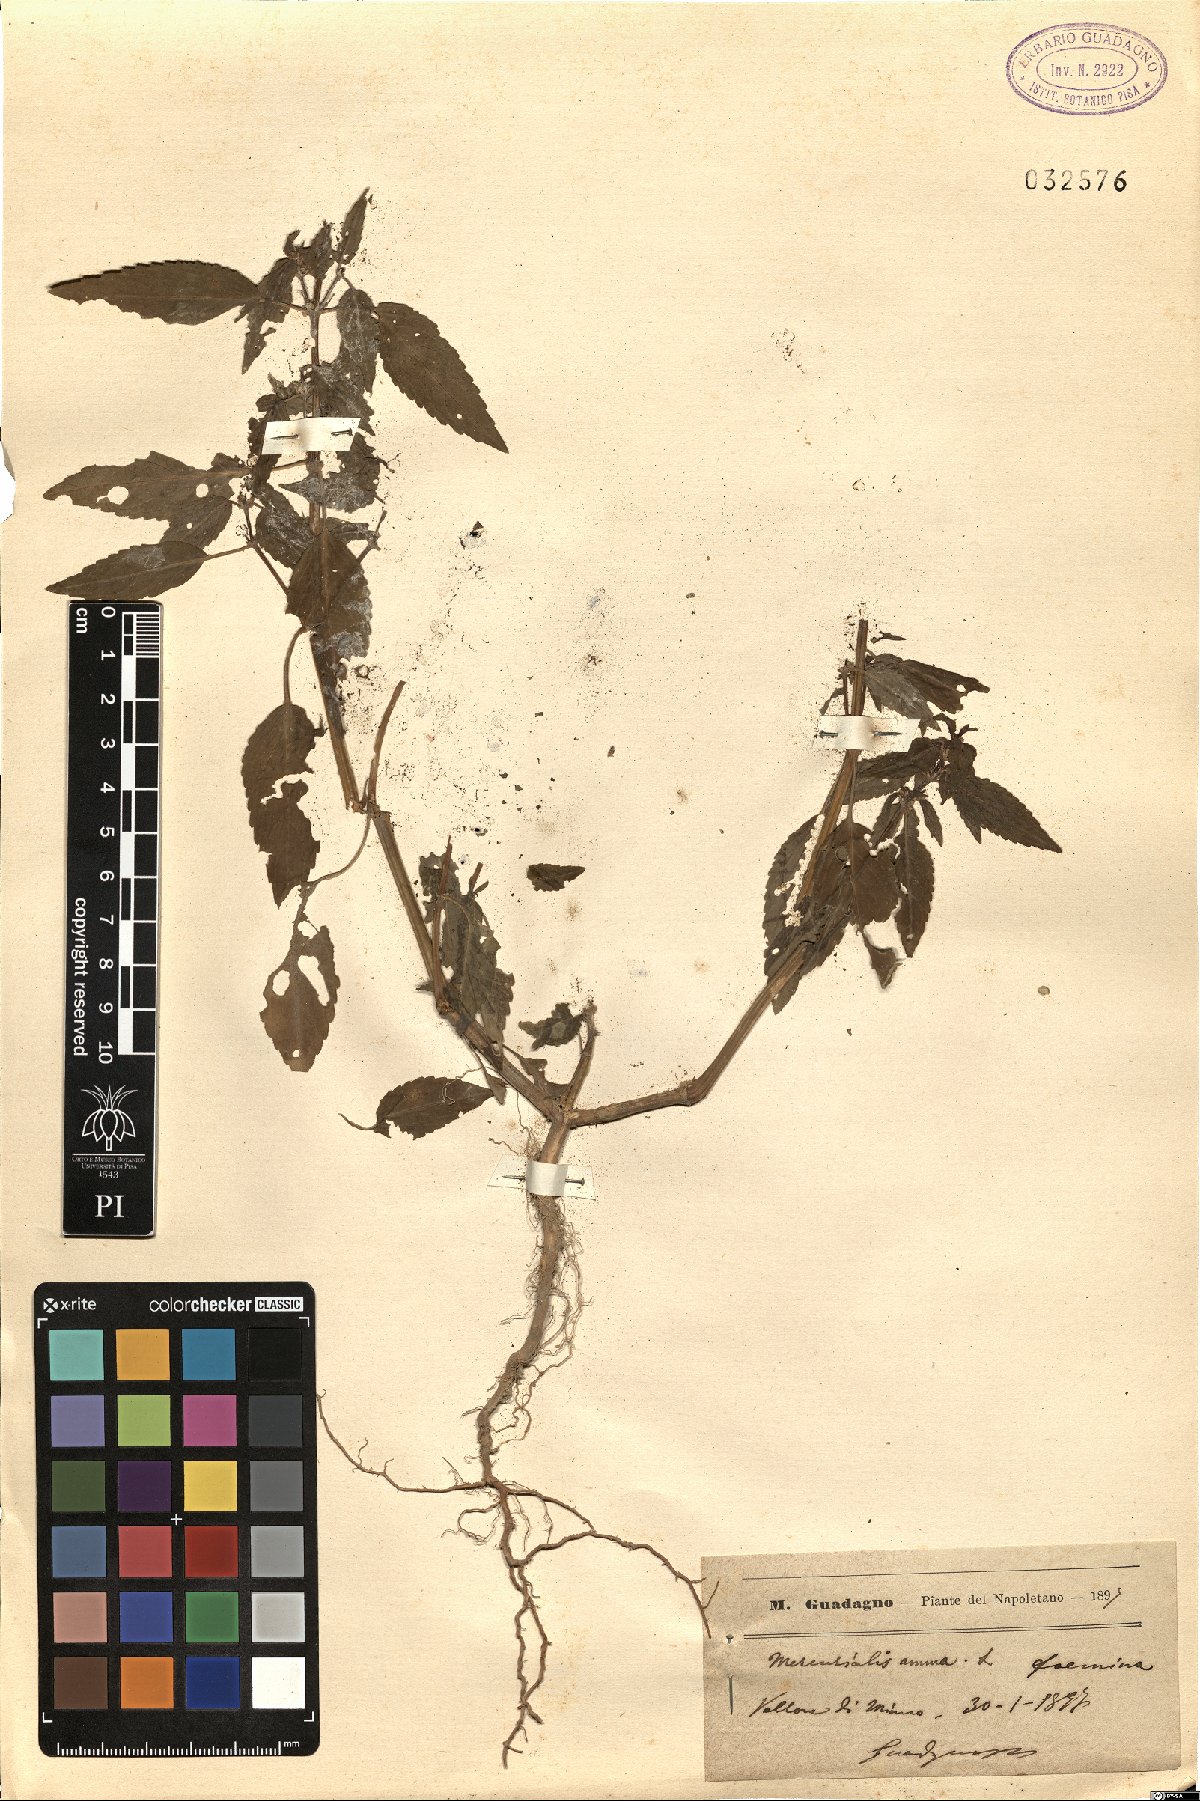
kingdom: Plantae
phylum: Tracheophyta
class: Magnoliopsida
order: Malpighiales
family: Euphorbiaceae
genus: Mercurialis
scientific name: Mercurialis annua
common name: Annual mercury
